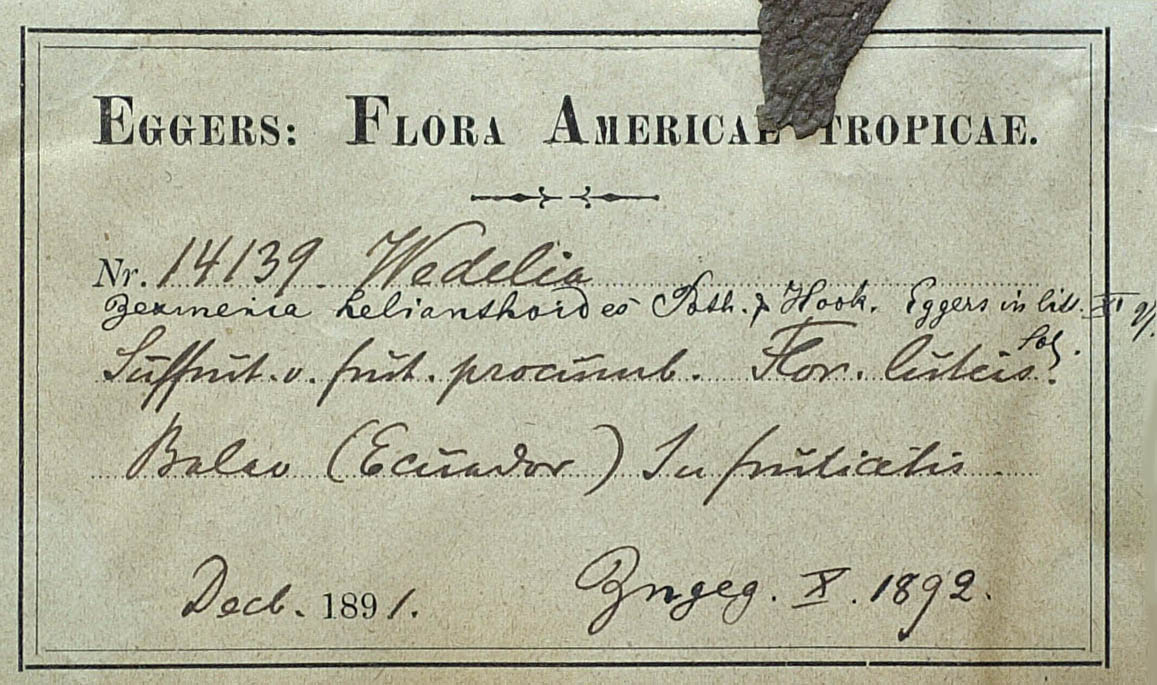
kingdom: Plantae
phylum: Tracheophyta
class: Magnoliopsida
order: Asterales
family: Asteraceae
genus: Elaphandra
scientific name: Elaphandra eggersii
